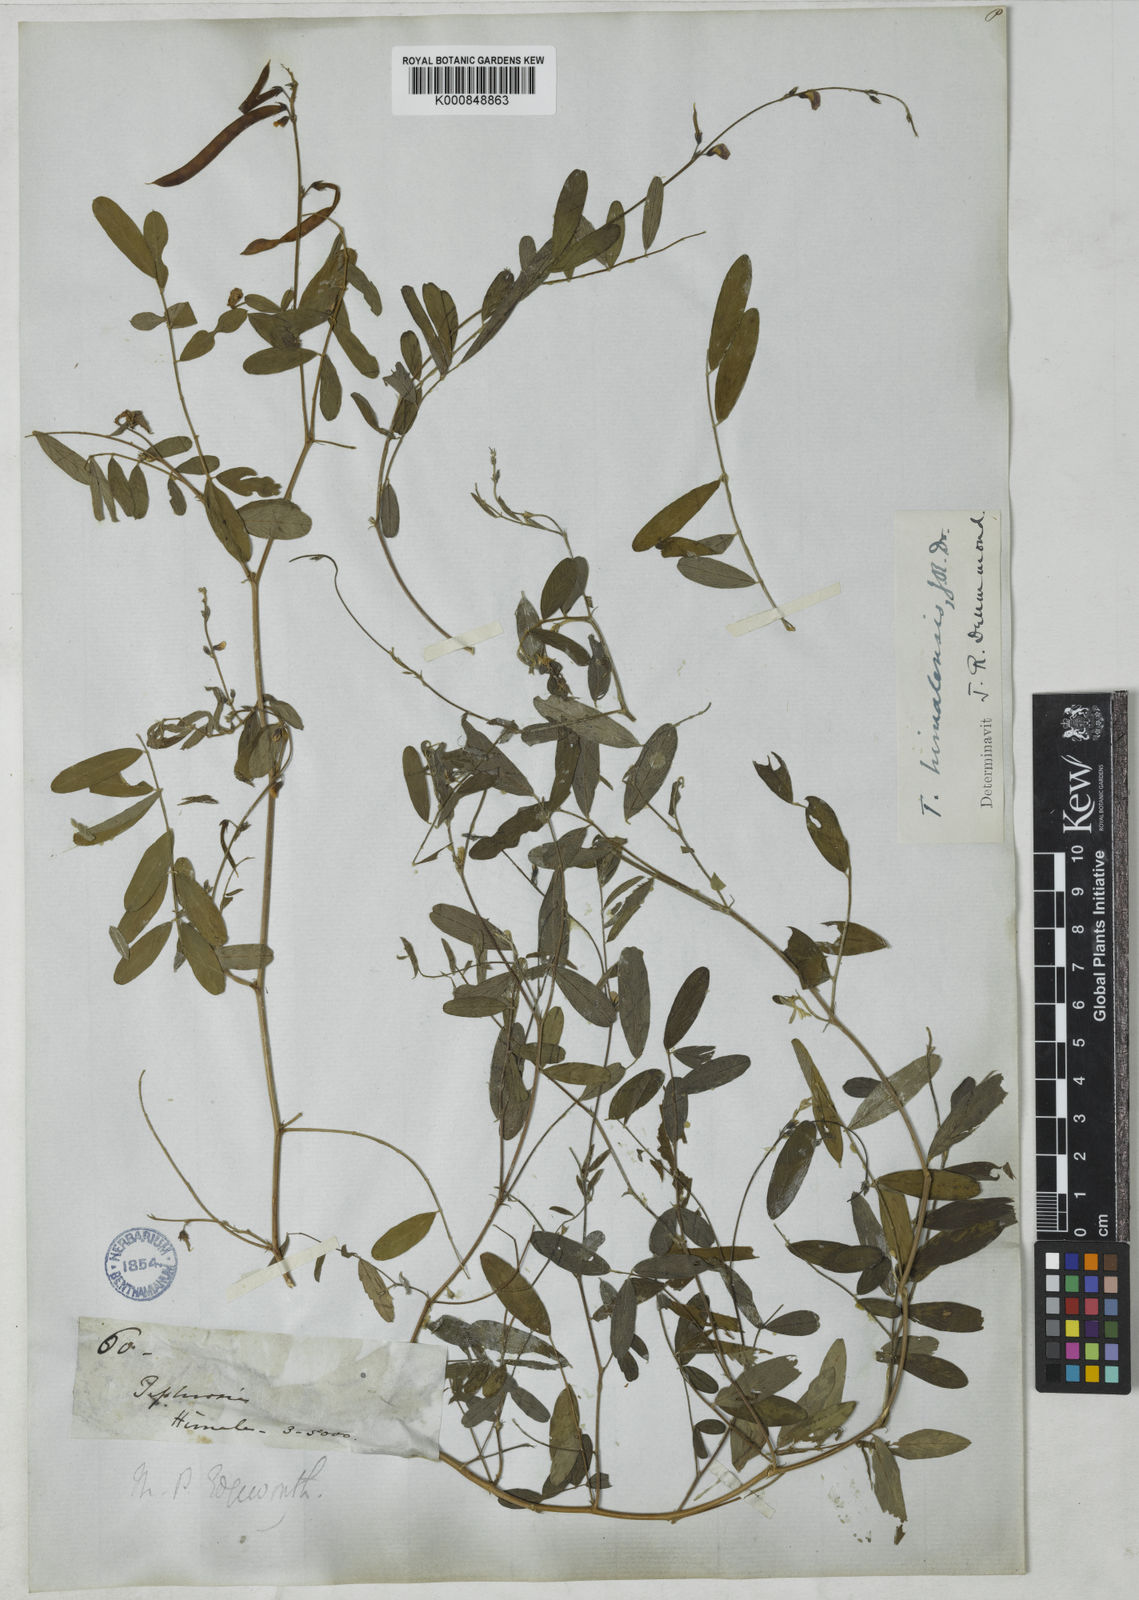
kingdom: Plantae
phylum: Tracheophyta
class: Magnoliopsida
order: Fabales
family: Fabaceae
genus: Tephrosia
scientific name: Tephrosia
